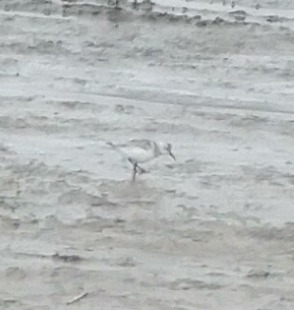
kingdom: Animalia
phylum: Chordata
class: Aves
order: Charadriiformes
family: Scolopacidae
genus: Calidris
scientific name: Calidris alba
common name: Sandløber
